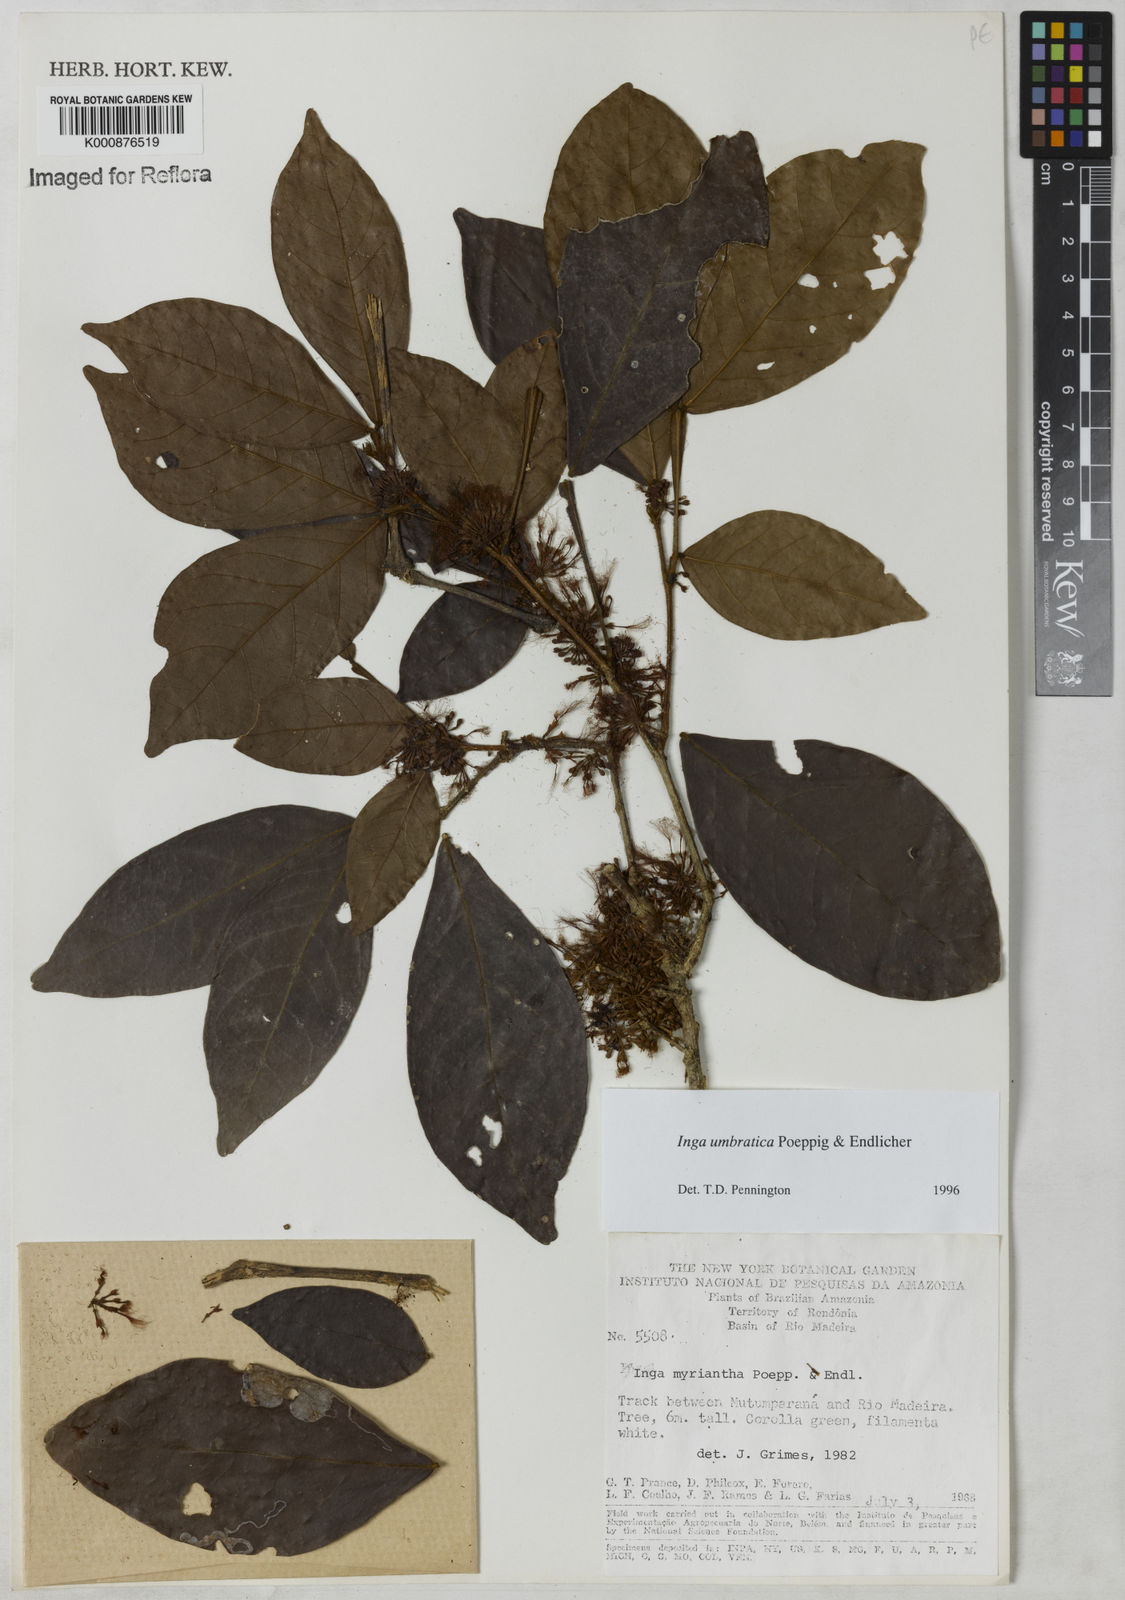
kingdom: Plantae
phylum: Tracheophyta
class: Magnoliopsida
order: Fabales
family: Fabaceae
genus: Inga
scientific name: Inga umbratica
